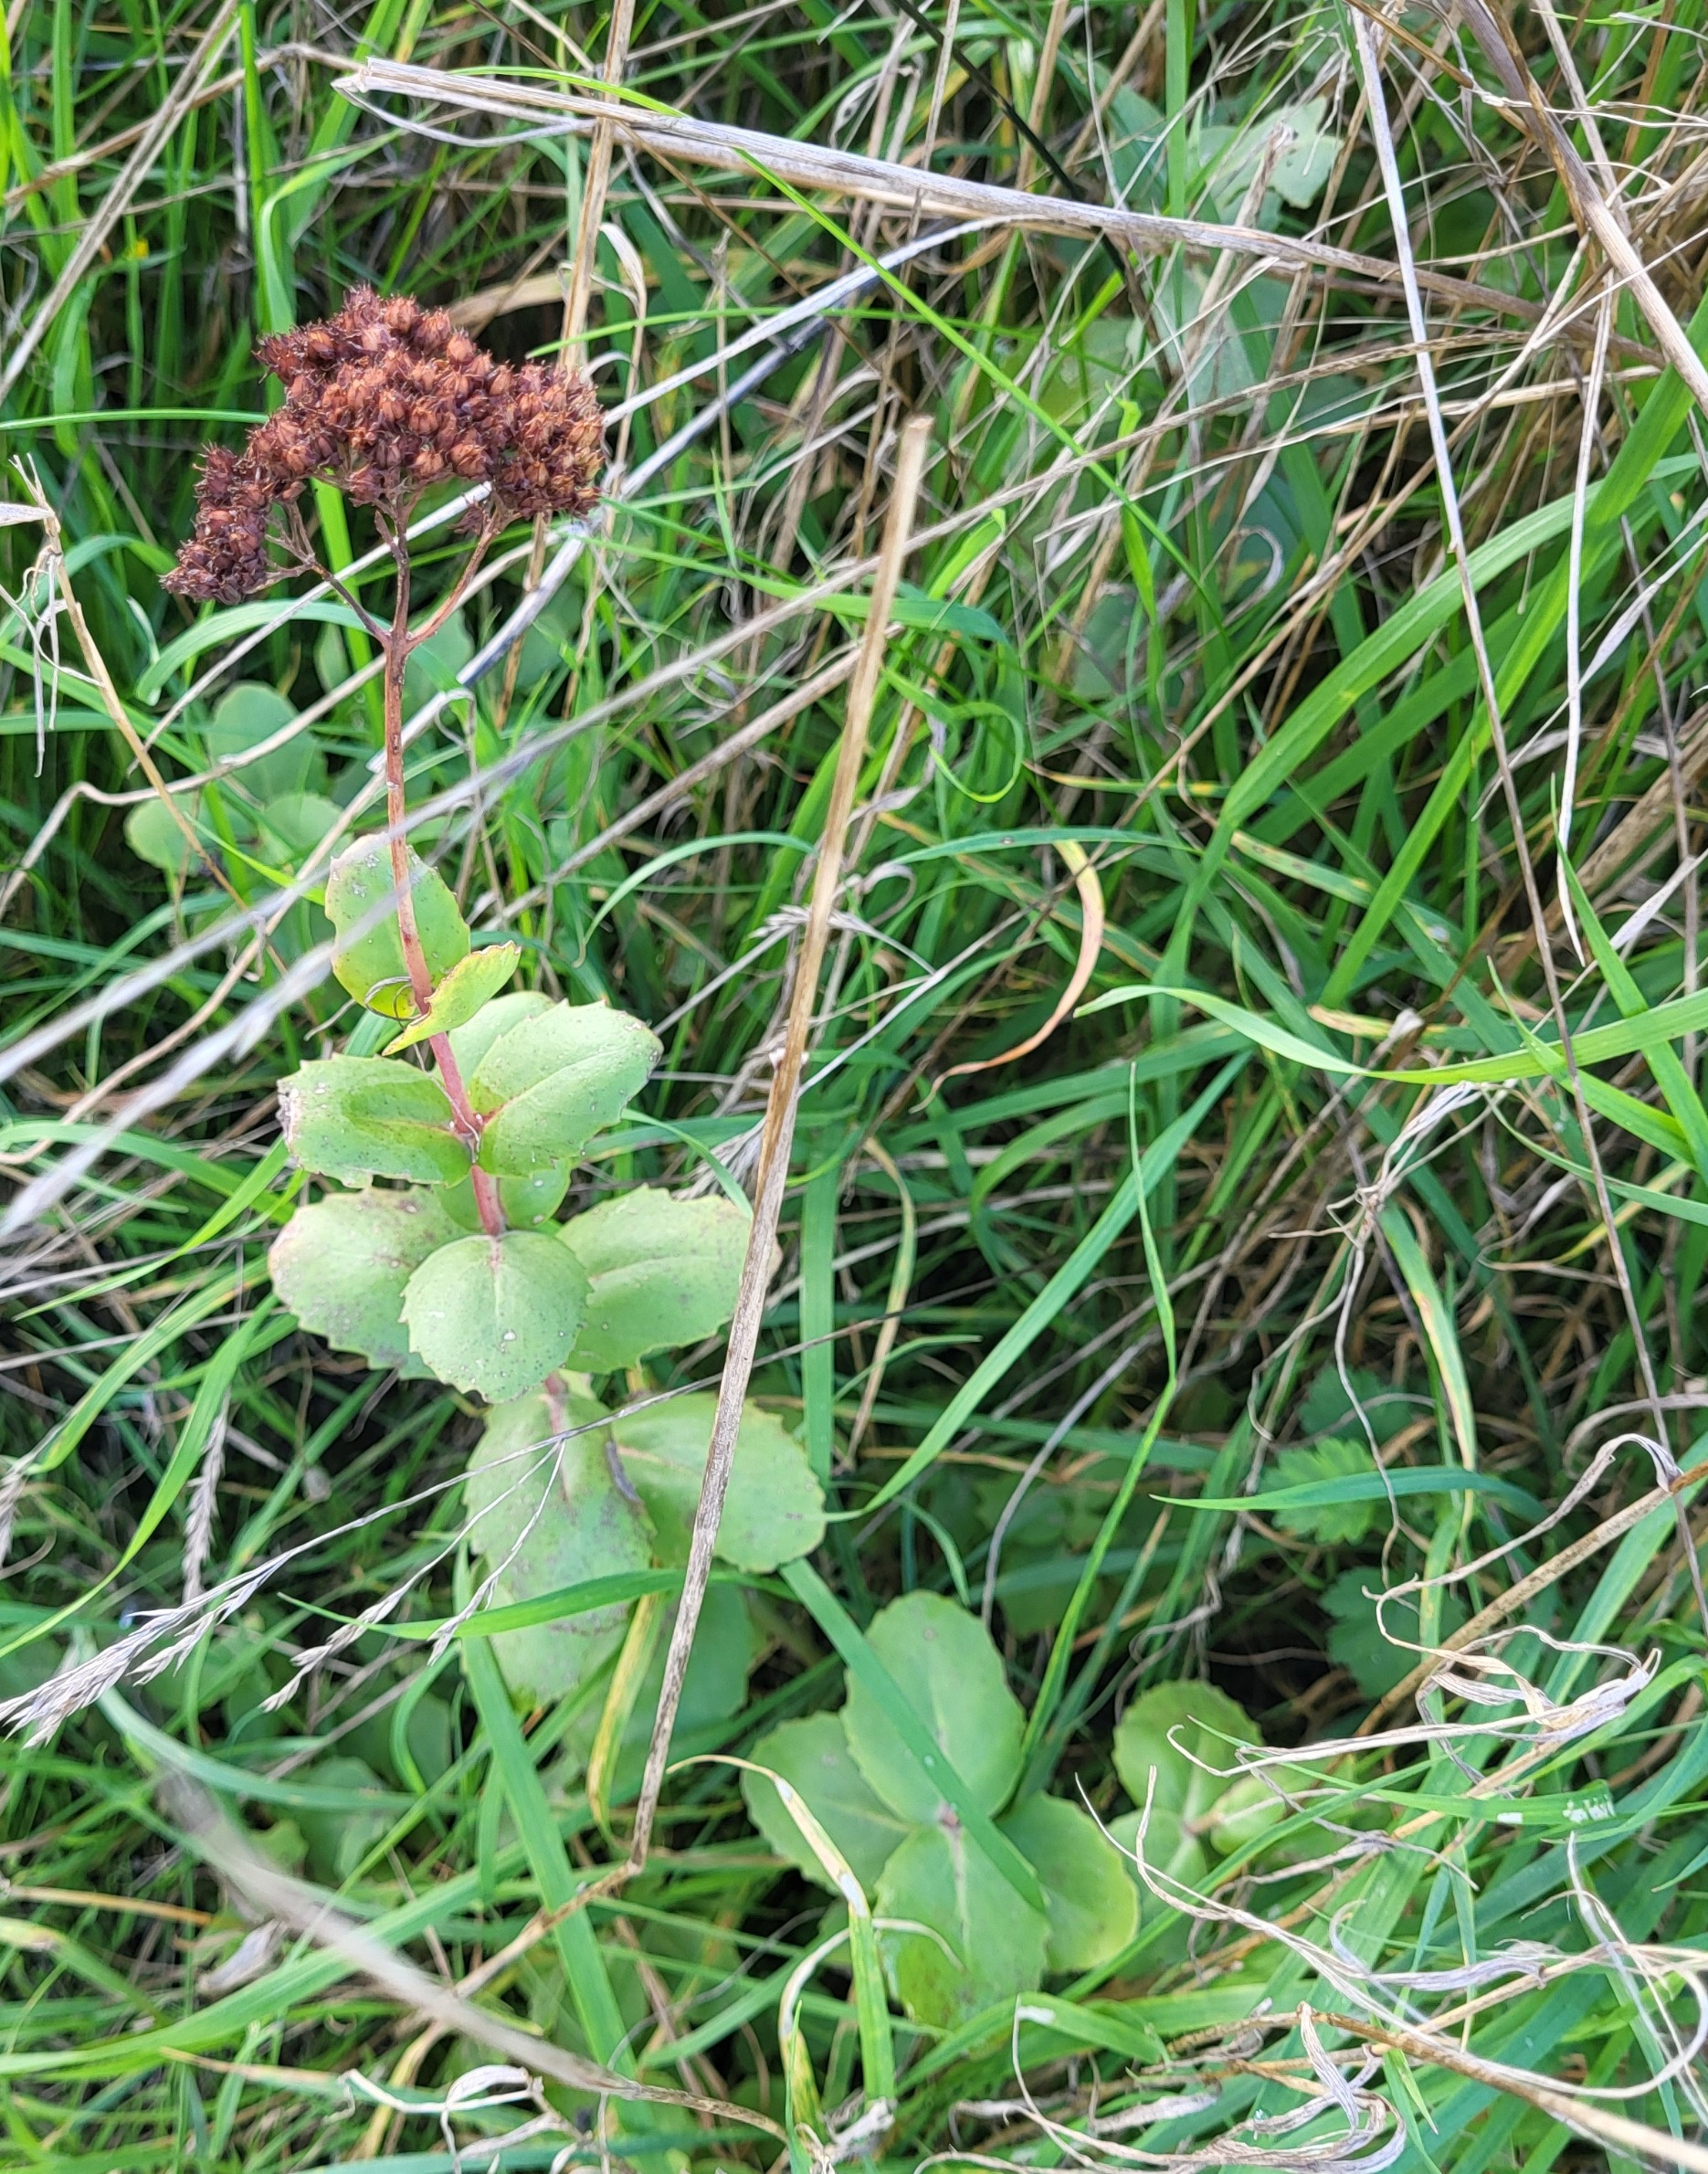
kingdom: Plantae
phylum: Tracheophyta
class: Magnoliopsida
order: Saxifragales
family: Crassulaceae
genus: Hylotelephium
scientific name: Hylotelephium maximum
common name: Almindelig sankthansurt
